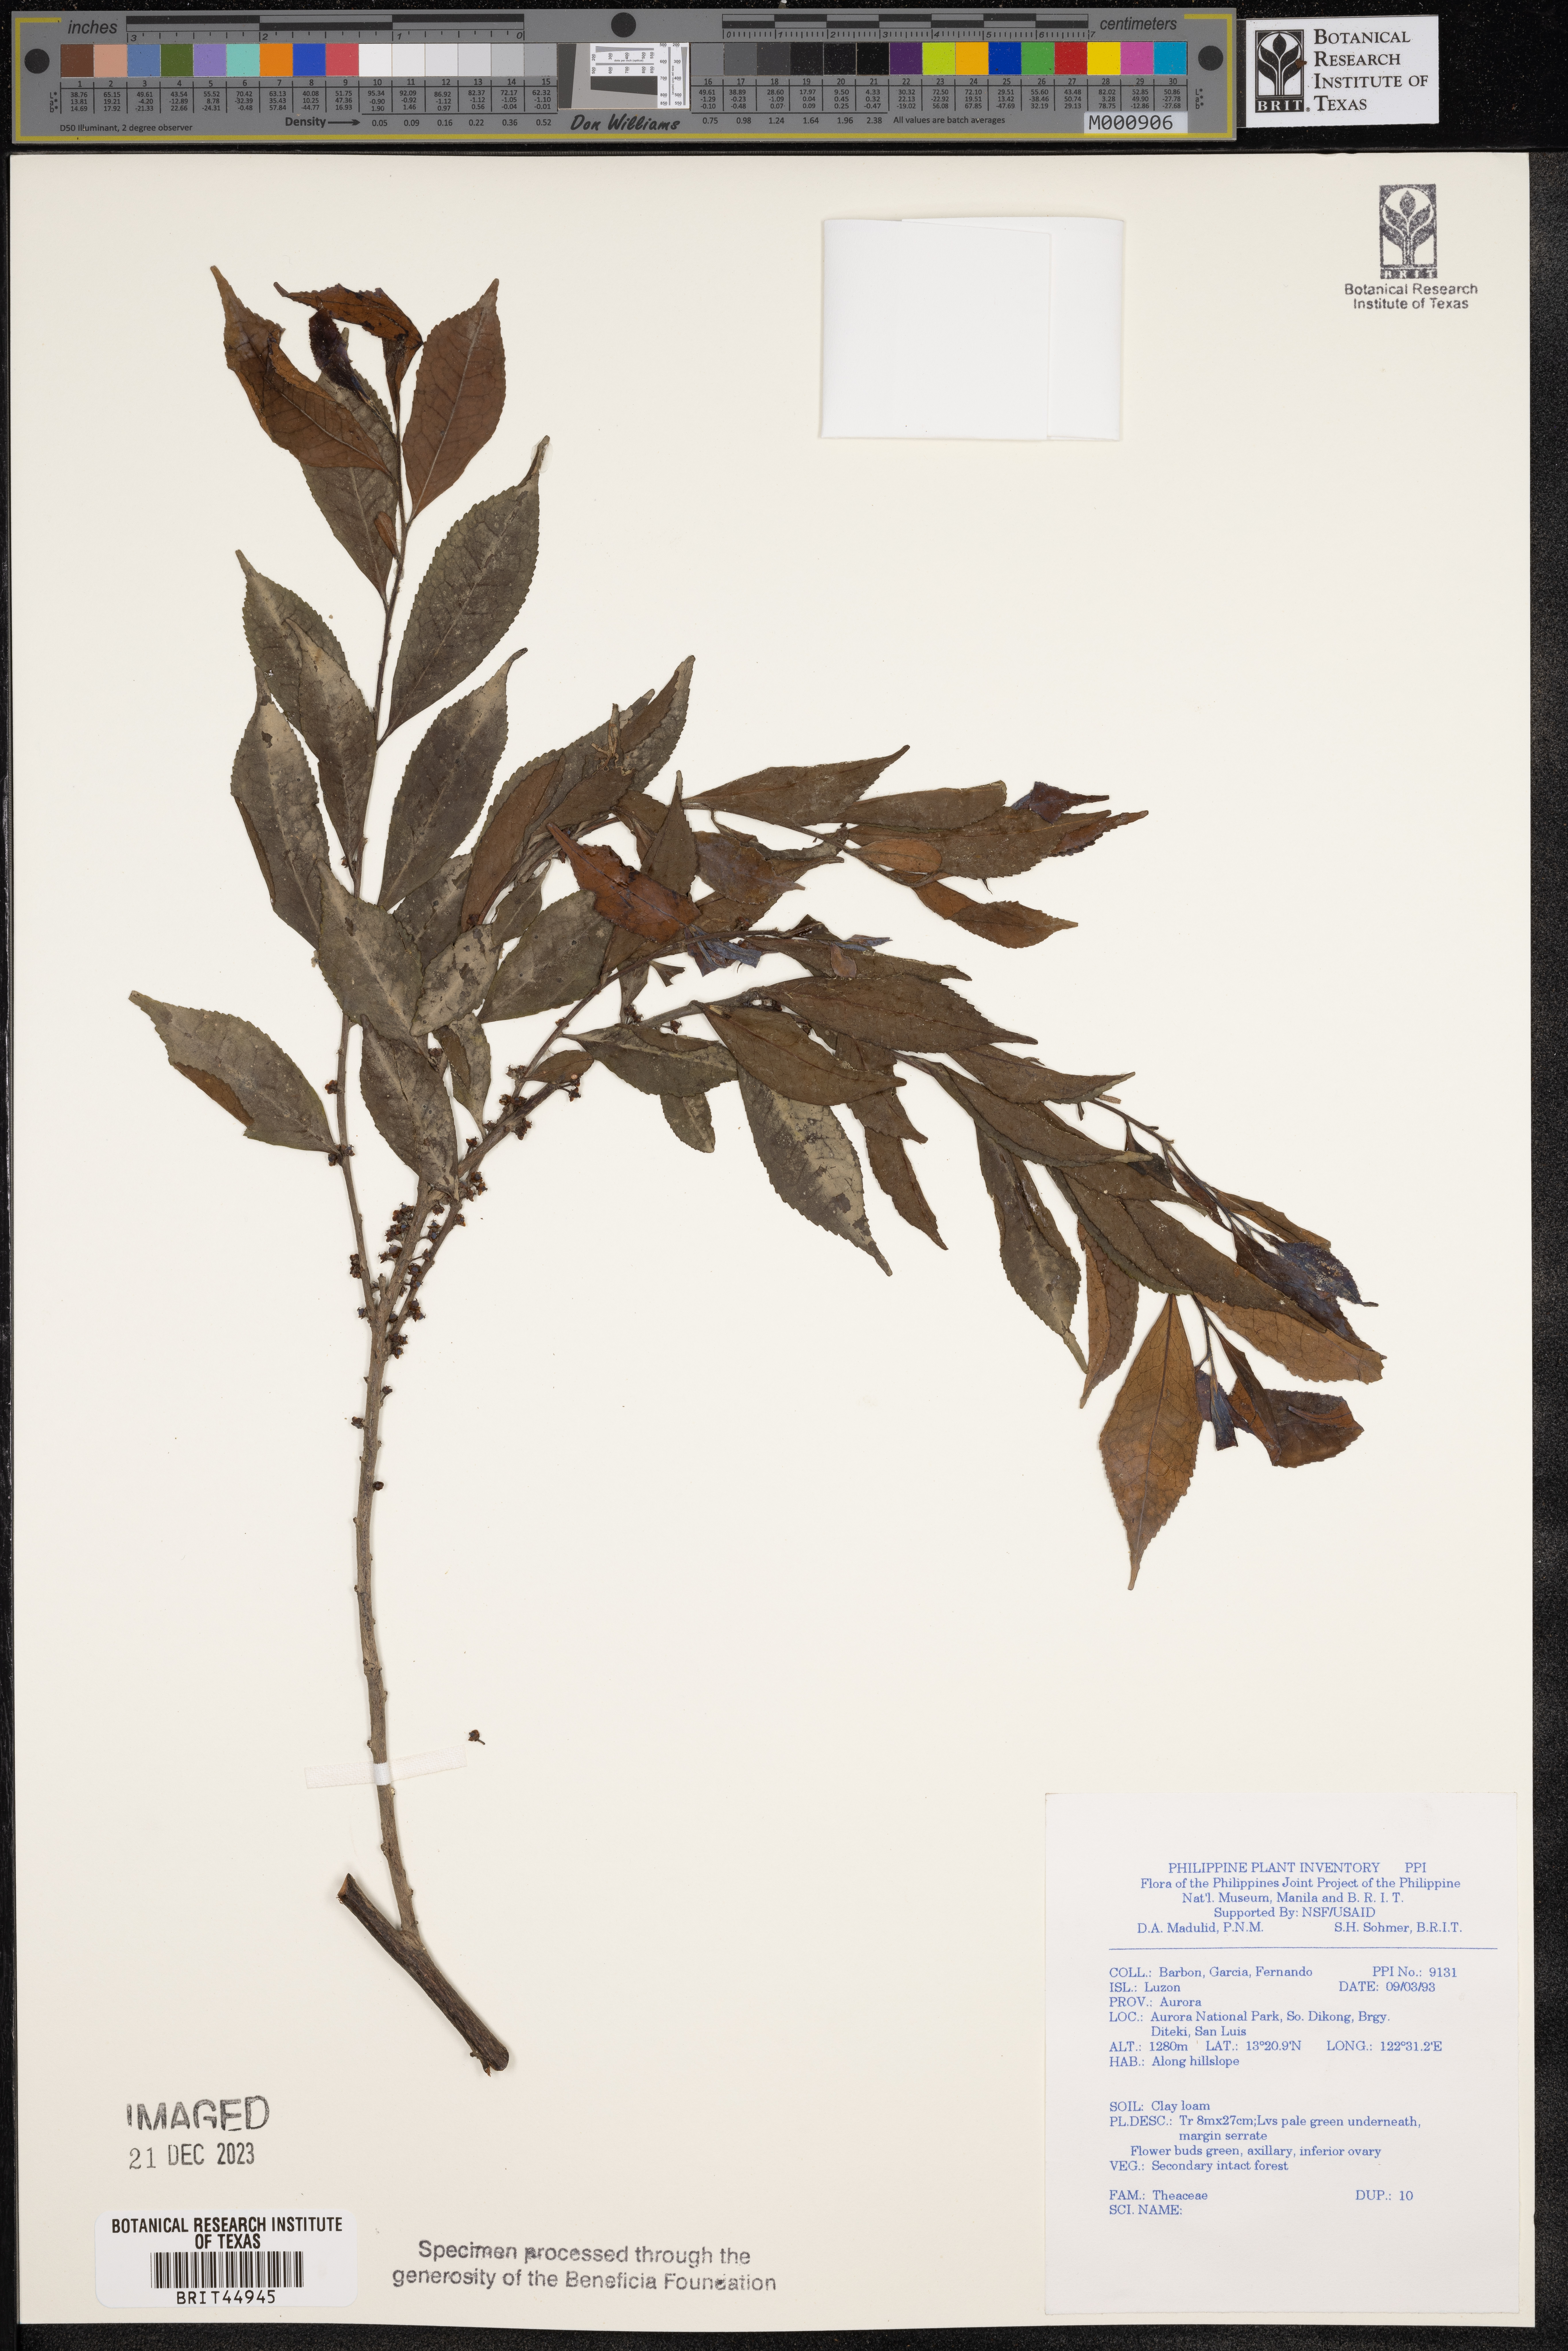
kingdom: Plantae
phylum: Tracheophyta
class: Magnoliopsida
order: Ericales
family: Theaceae
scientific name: Theaceae
